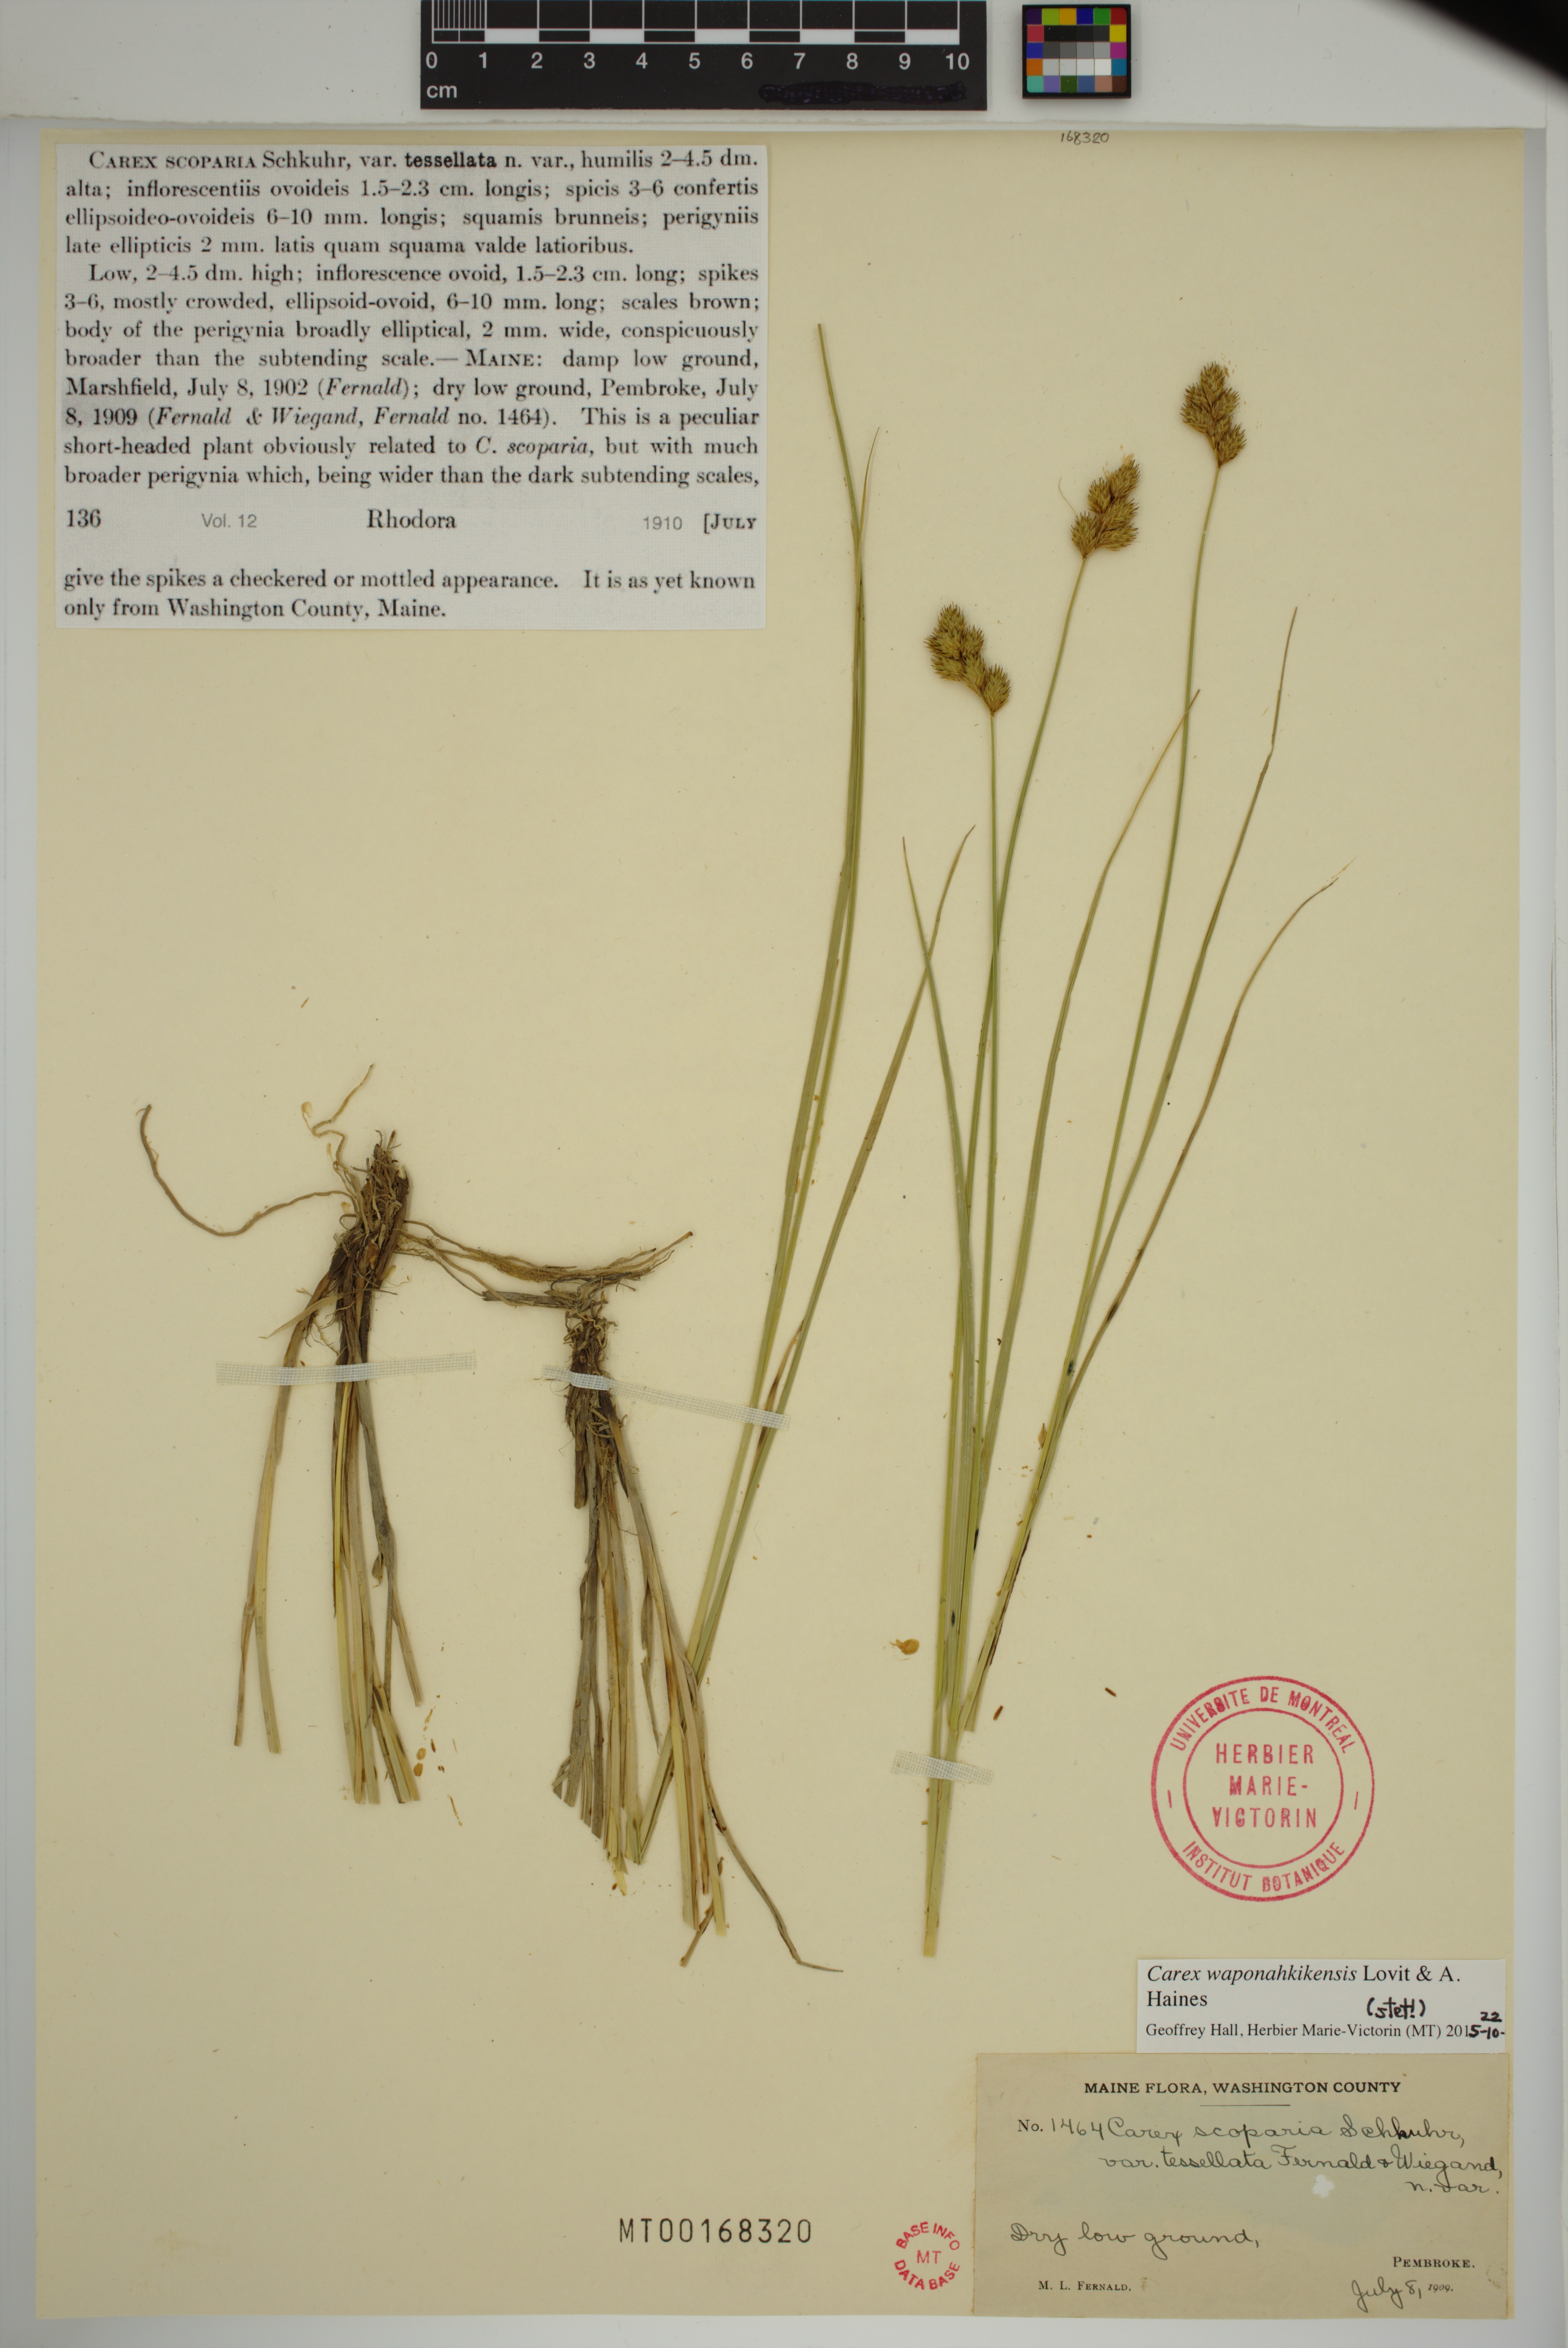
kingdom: Plantae
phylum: Tracheophyta
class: Liliopsida
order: Poales
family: Cyperaceae
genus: Carex
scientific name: Carex waponahkikensis
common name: Dawn-land sedge
